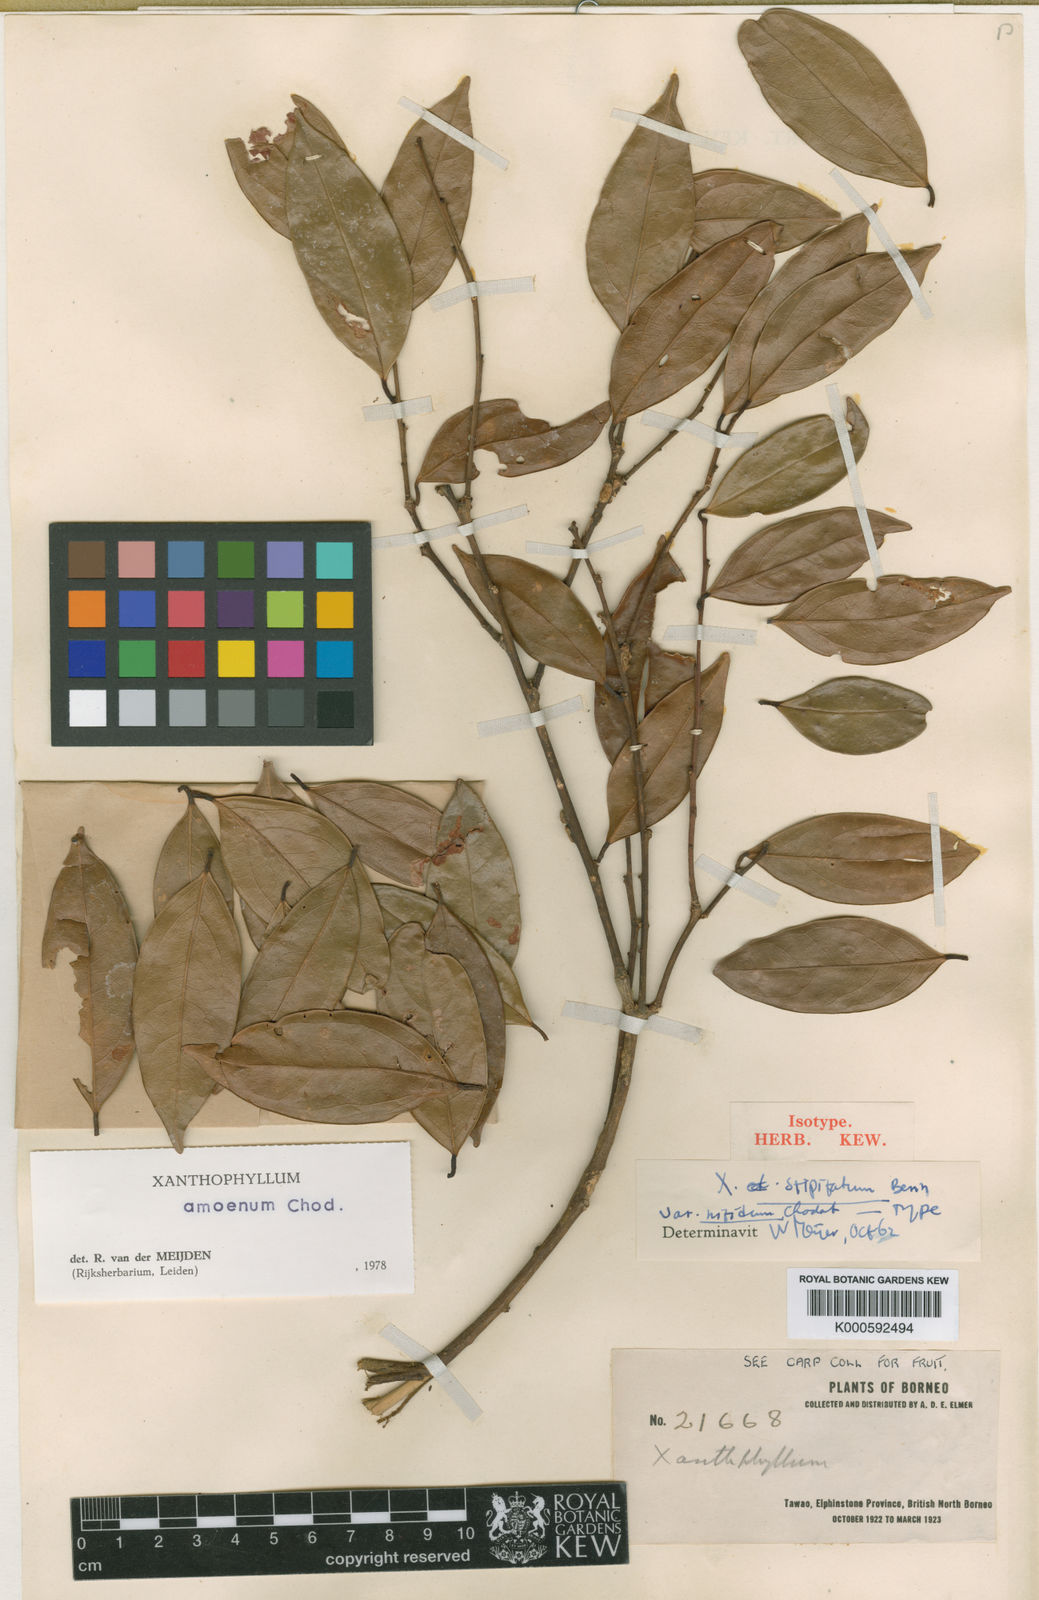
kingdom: Plantae
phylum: Tracheophyta
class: Magnoliopsida
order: Fabales
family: Polygalaceae
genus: Xanthophyllum
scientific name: Xanthophyllum stipitatum
